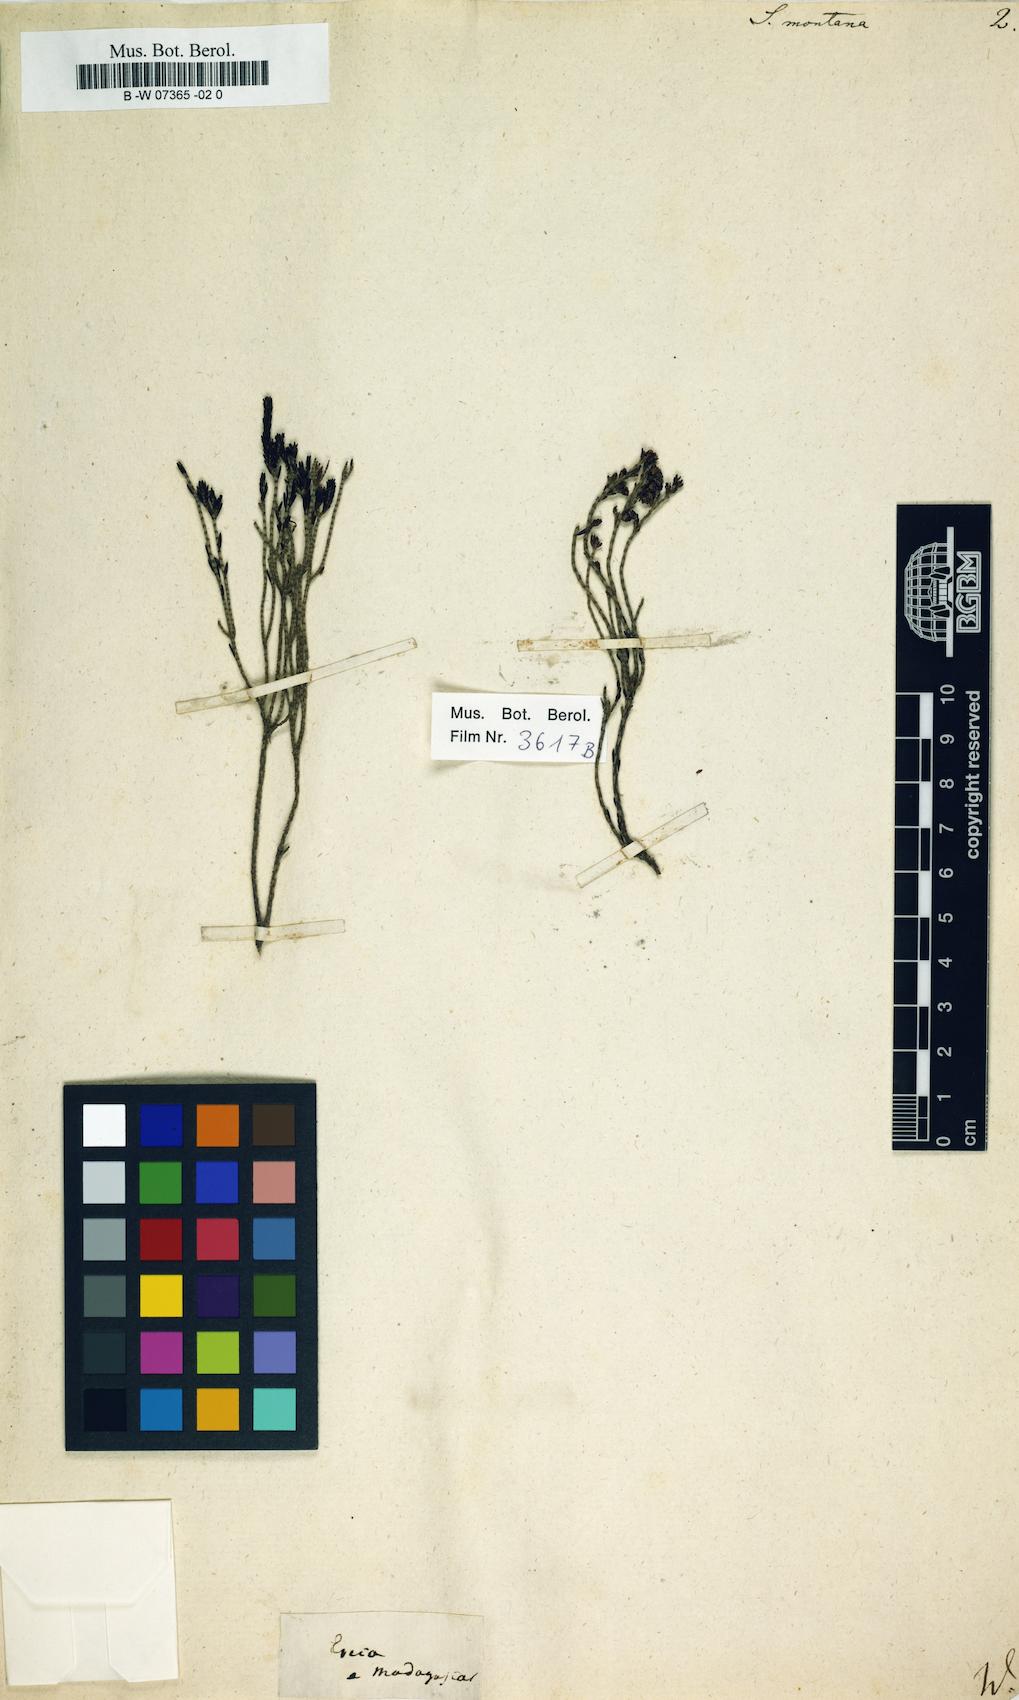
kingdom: Plantae
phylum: Tracheophyta
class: Magnoliopsida
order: Ericales
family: Ericaceae
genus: Erica
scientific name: Erica
